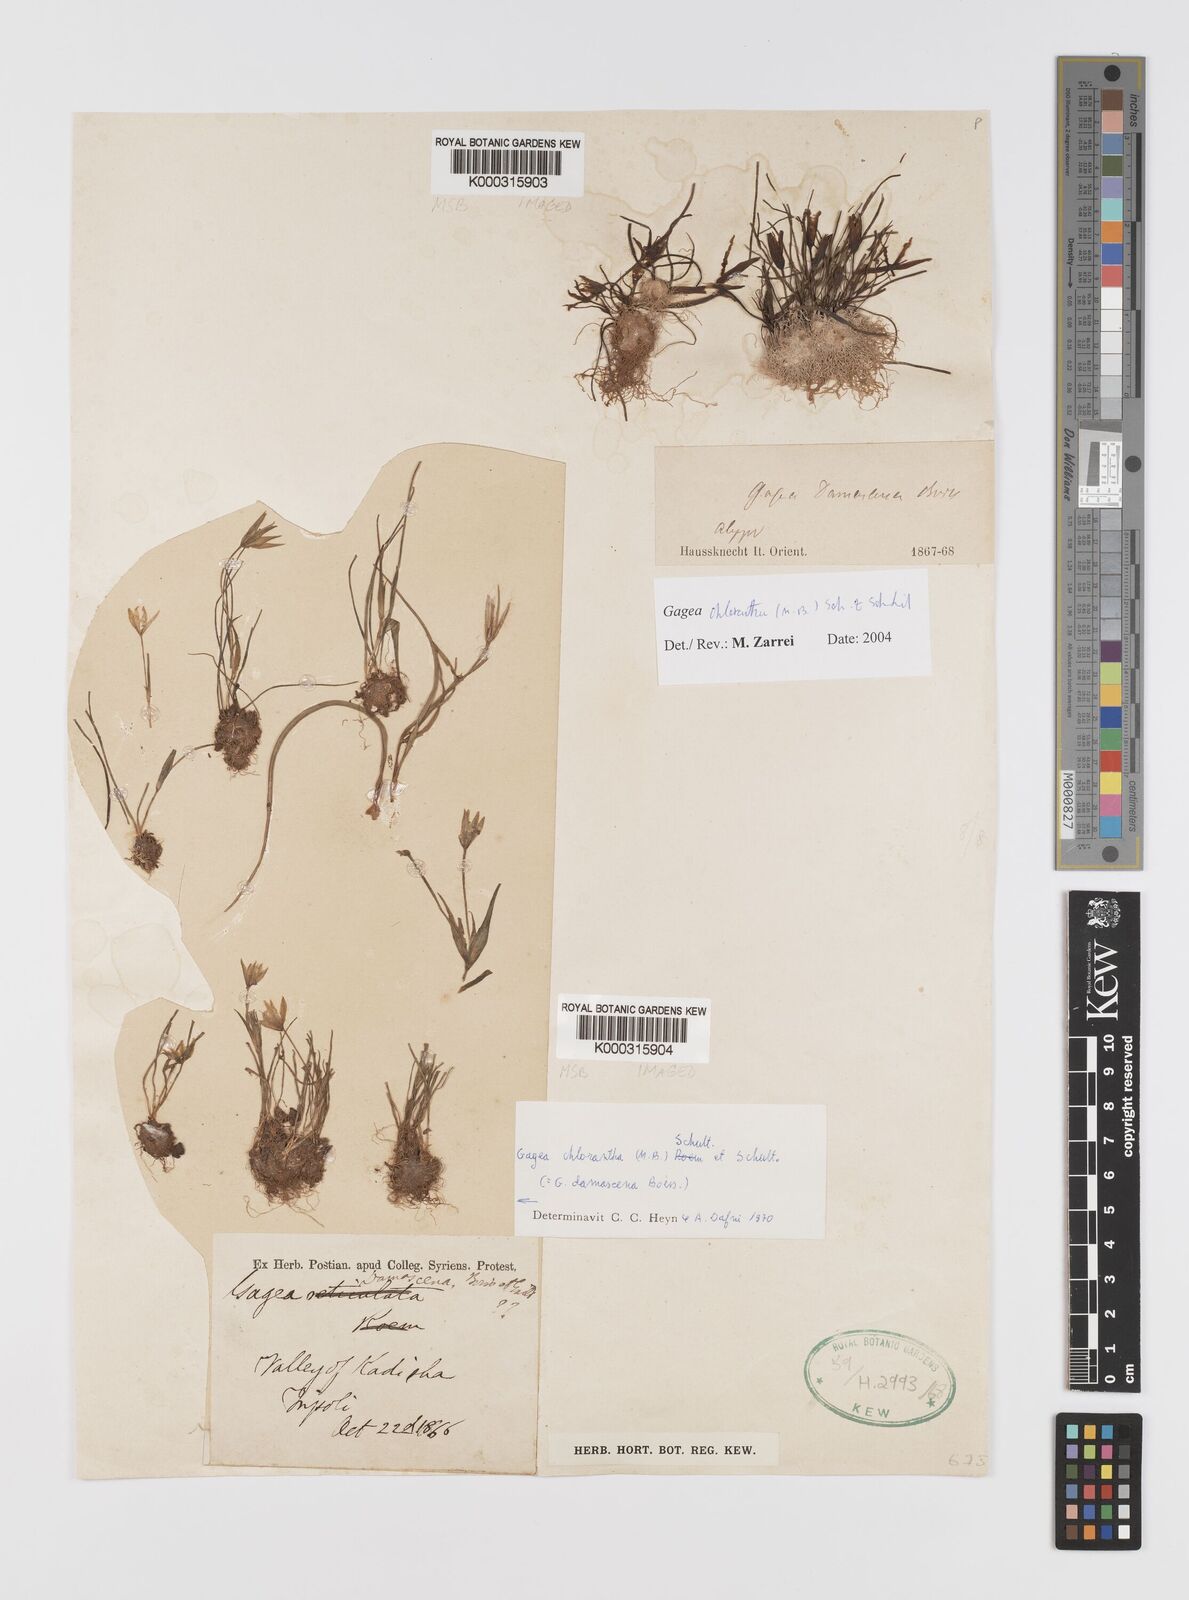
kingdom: Plantae
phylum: Tracheophyta
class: Liliopsida
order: Liliales
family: Liliaceae
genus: Gagea
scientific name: Gagea chlorantha
